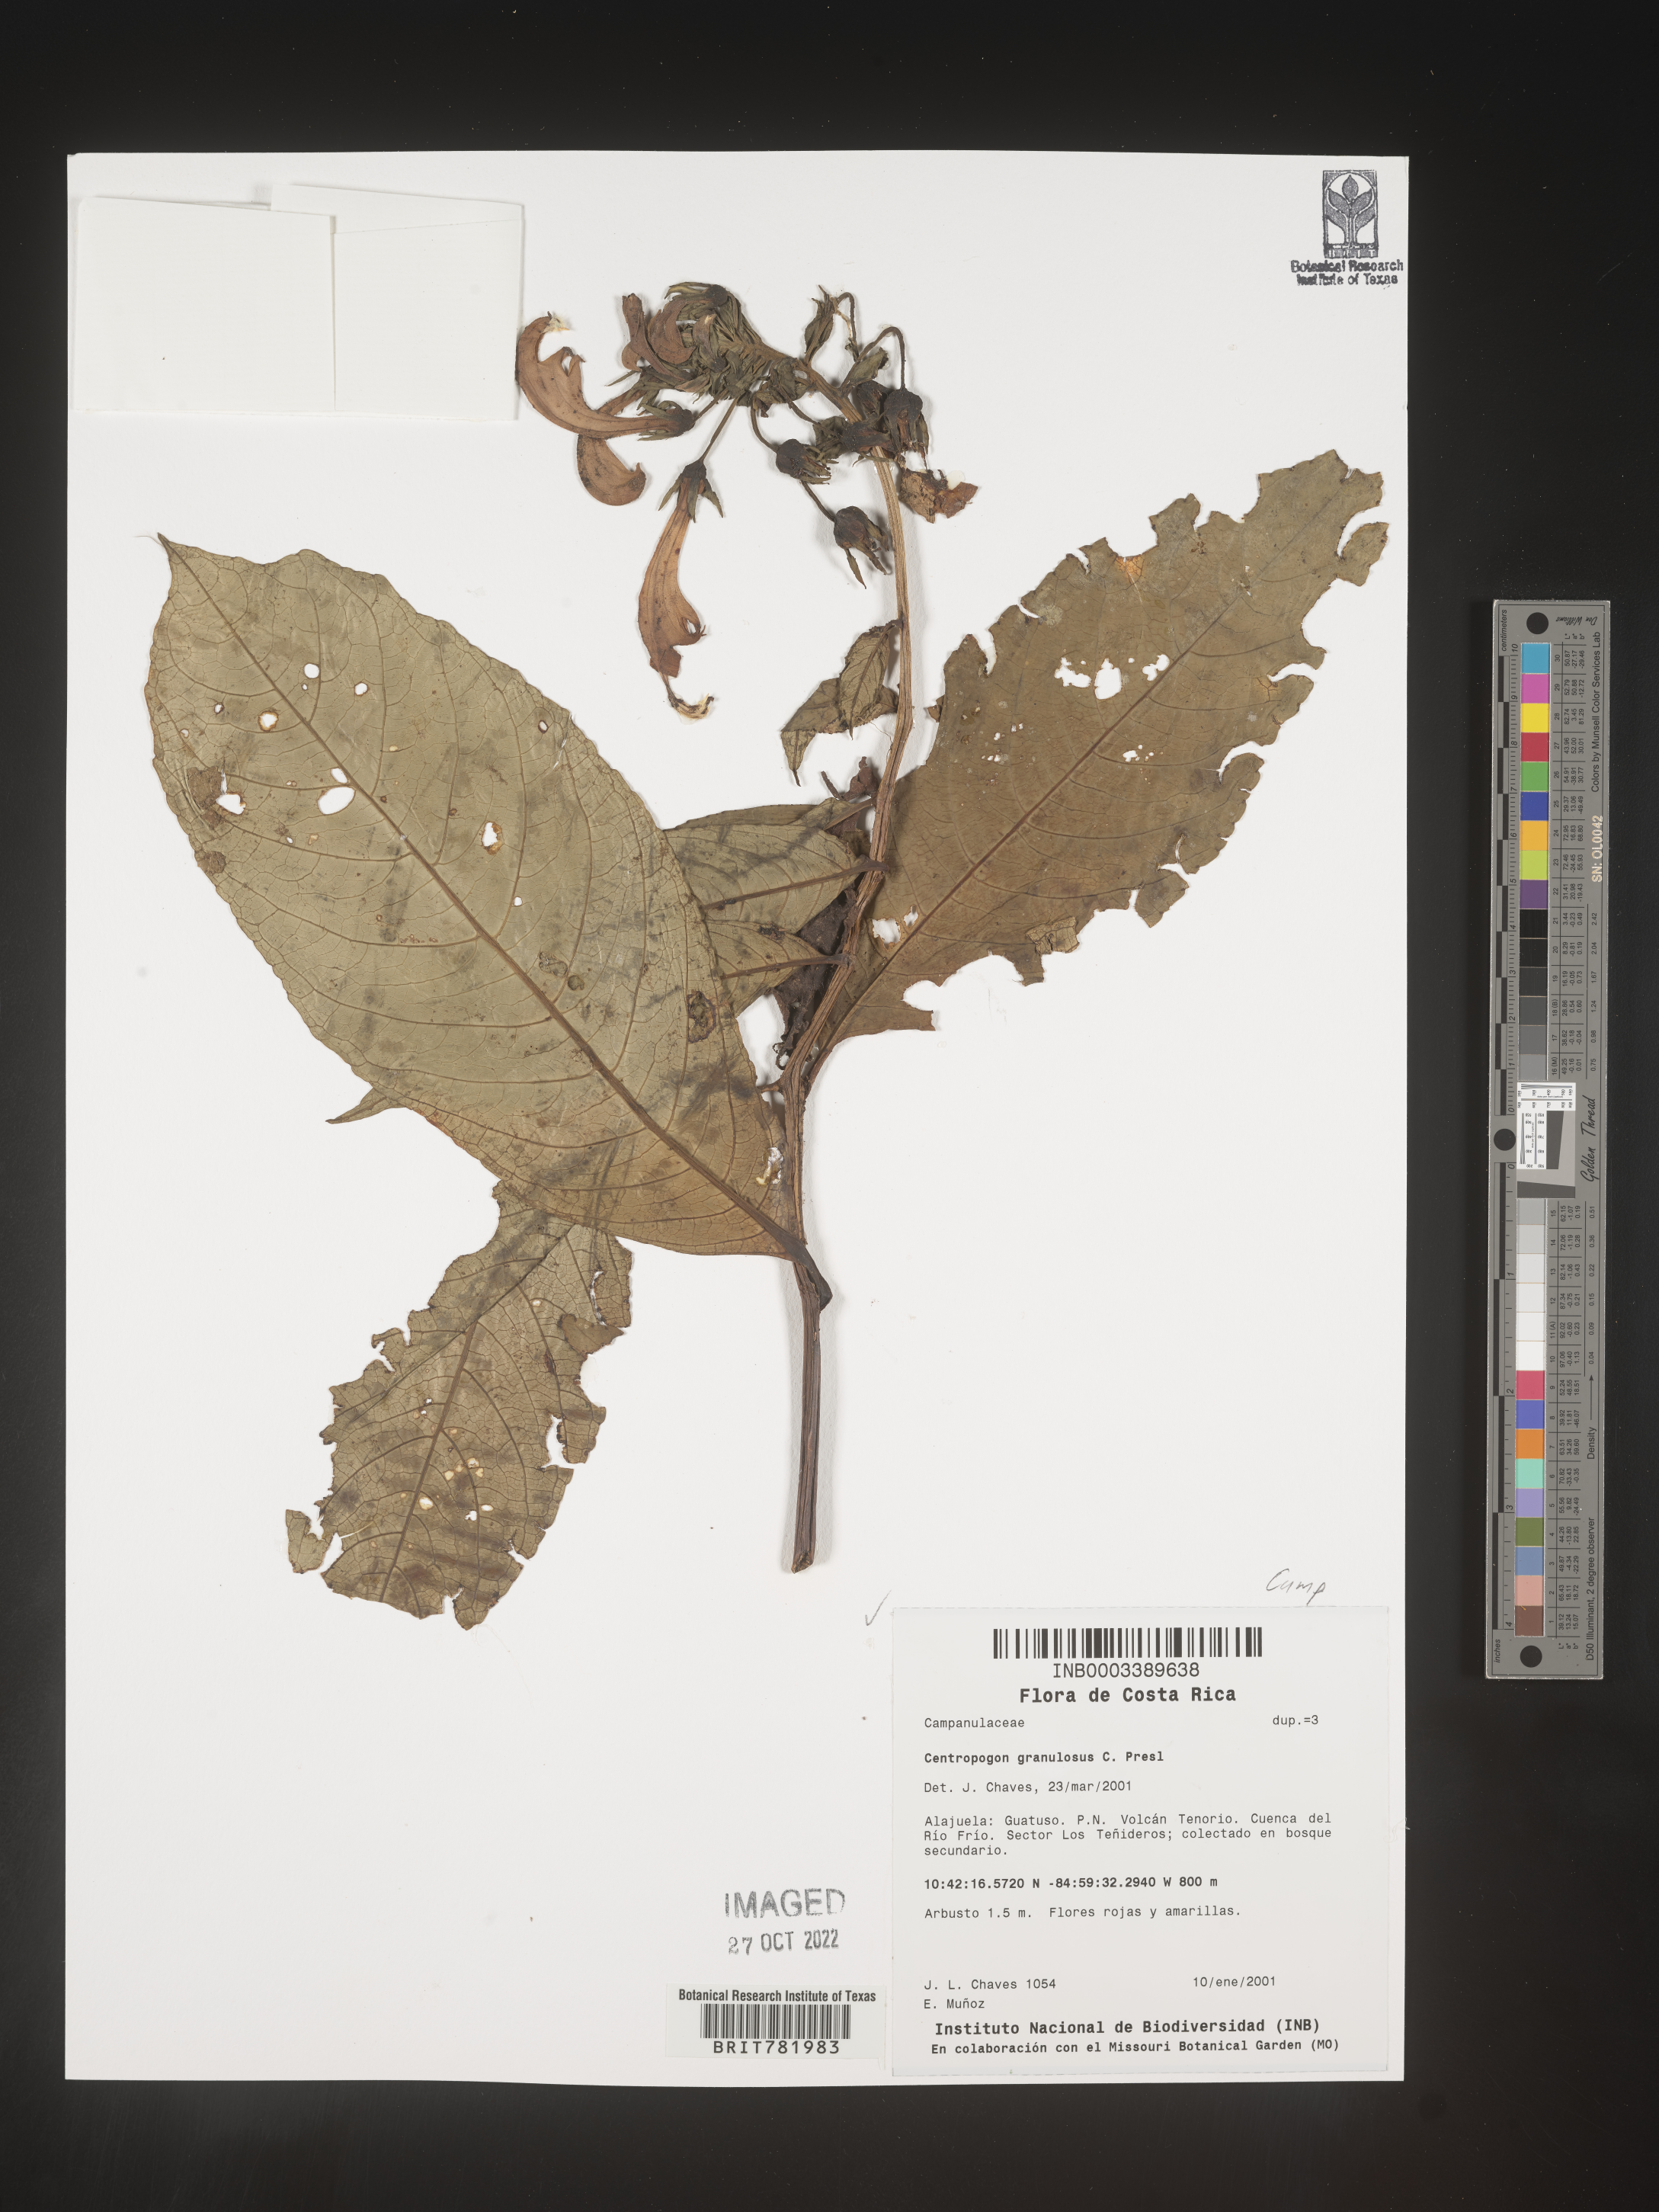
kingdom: Plantae
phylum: Tracheophyta
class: Magnoliopsida
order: Asterales
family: Campanulaceae
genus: Centropogon
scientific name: Centropogon
